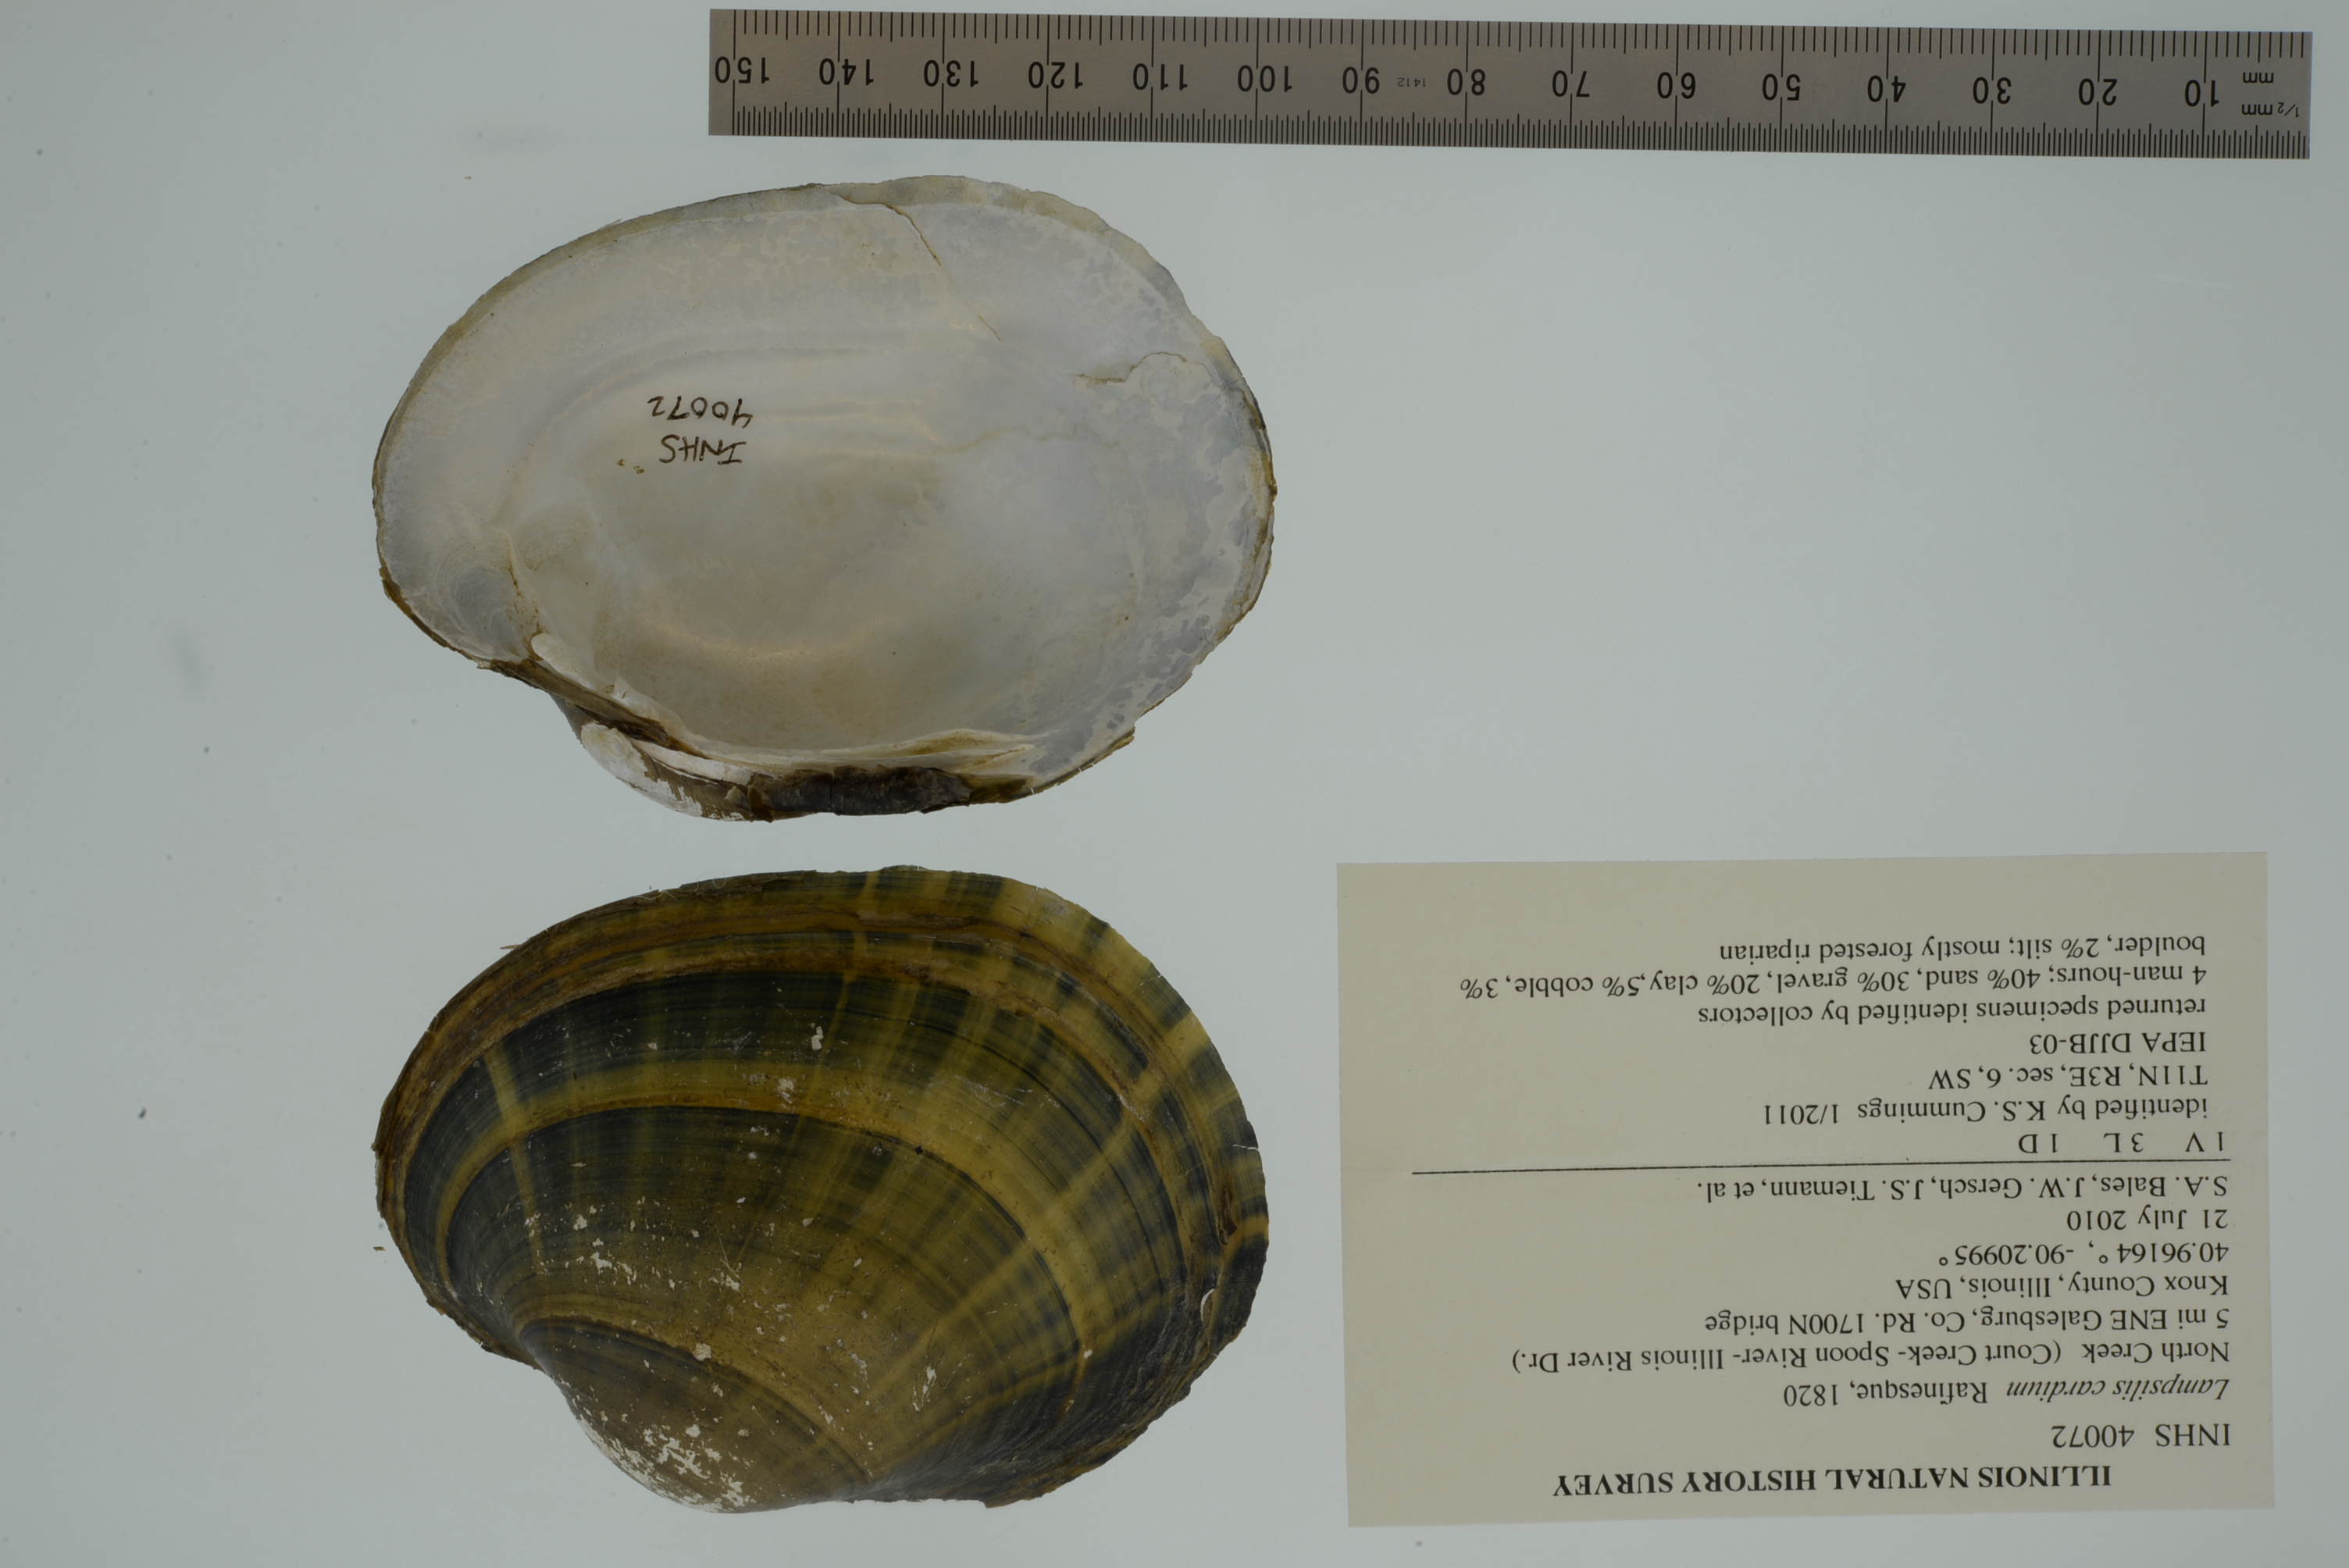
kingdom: Animalia
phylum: Mollusca
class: Bivalvia
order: Unionida
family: Unionidae
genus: Lampsilis
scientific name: Lampsilis cardium
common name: Plain pocketbook
